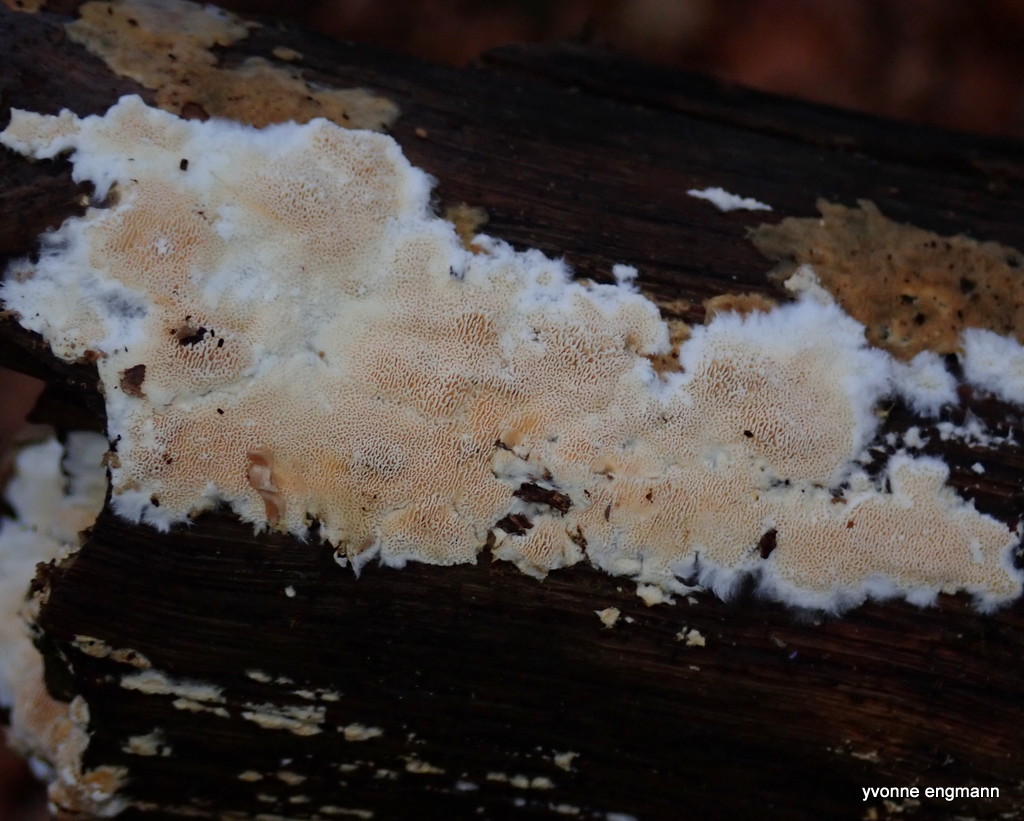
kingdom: Fungi
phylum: Basidiomycota
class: Agaricomycetes
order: Polyporales
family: Steccherinaceae
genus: Junghuhnia
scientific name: Junghuhnia
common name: skønporesvamp
